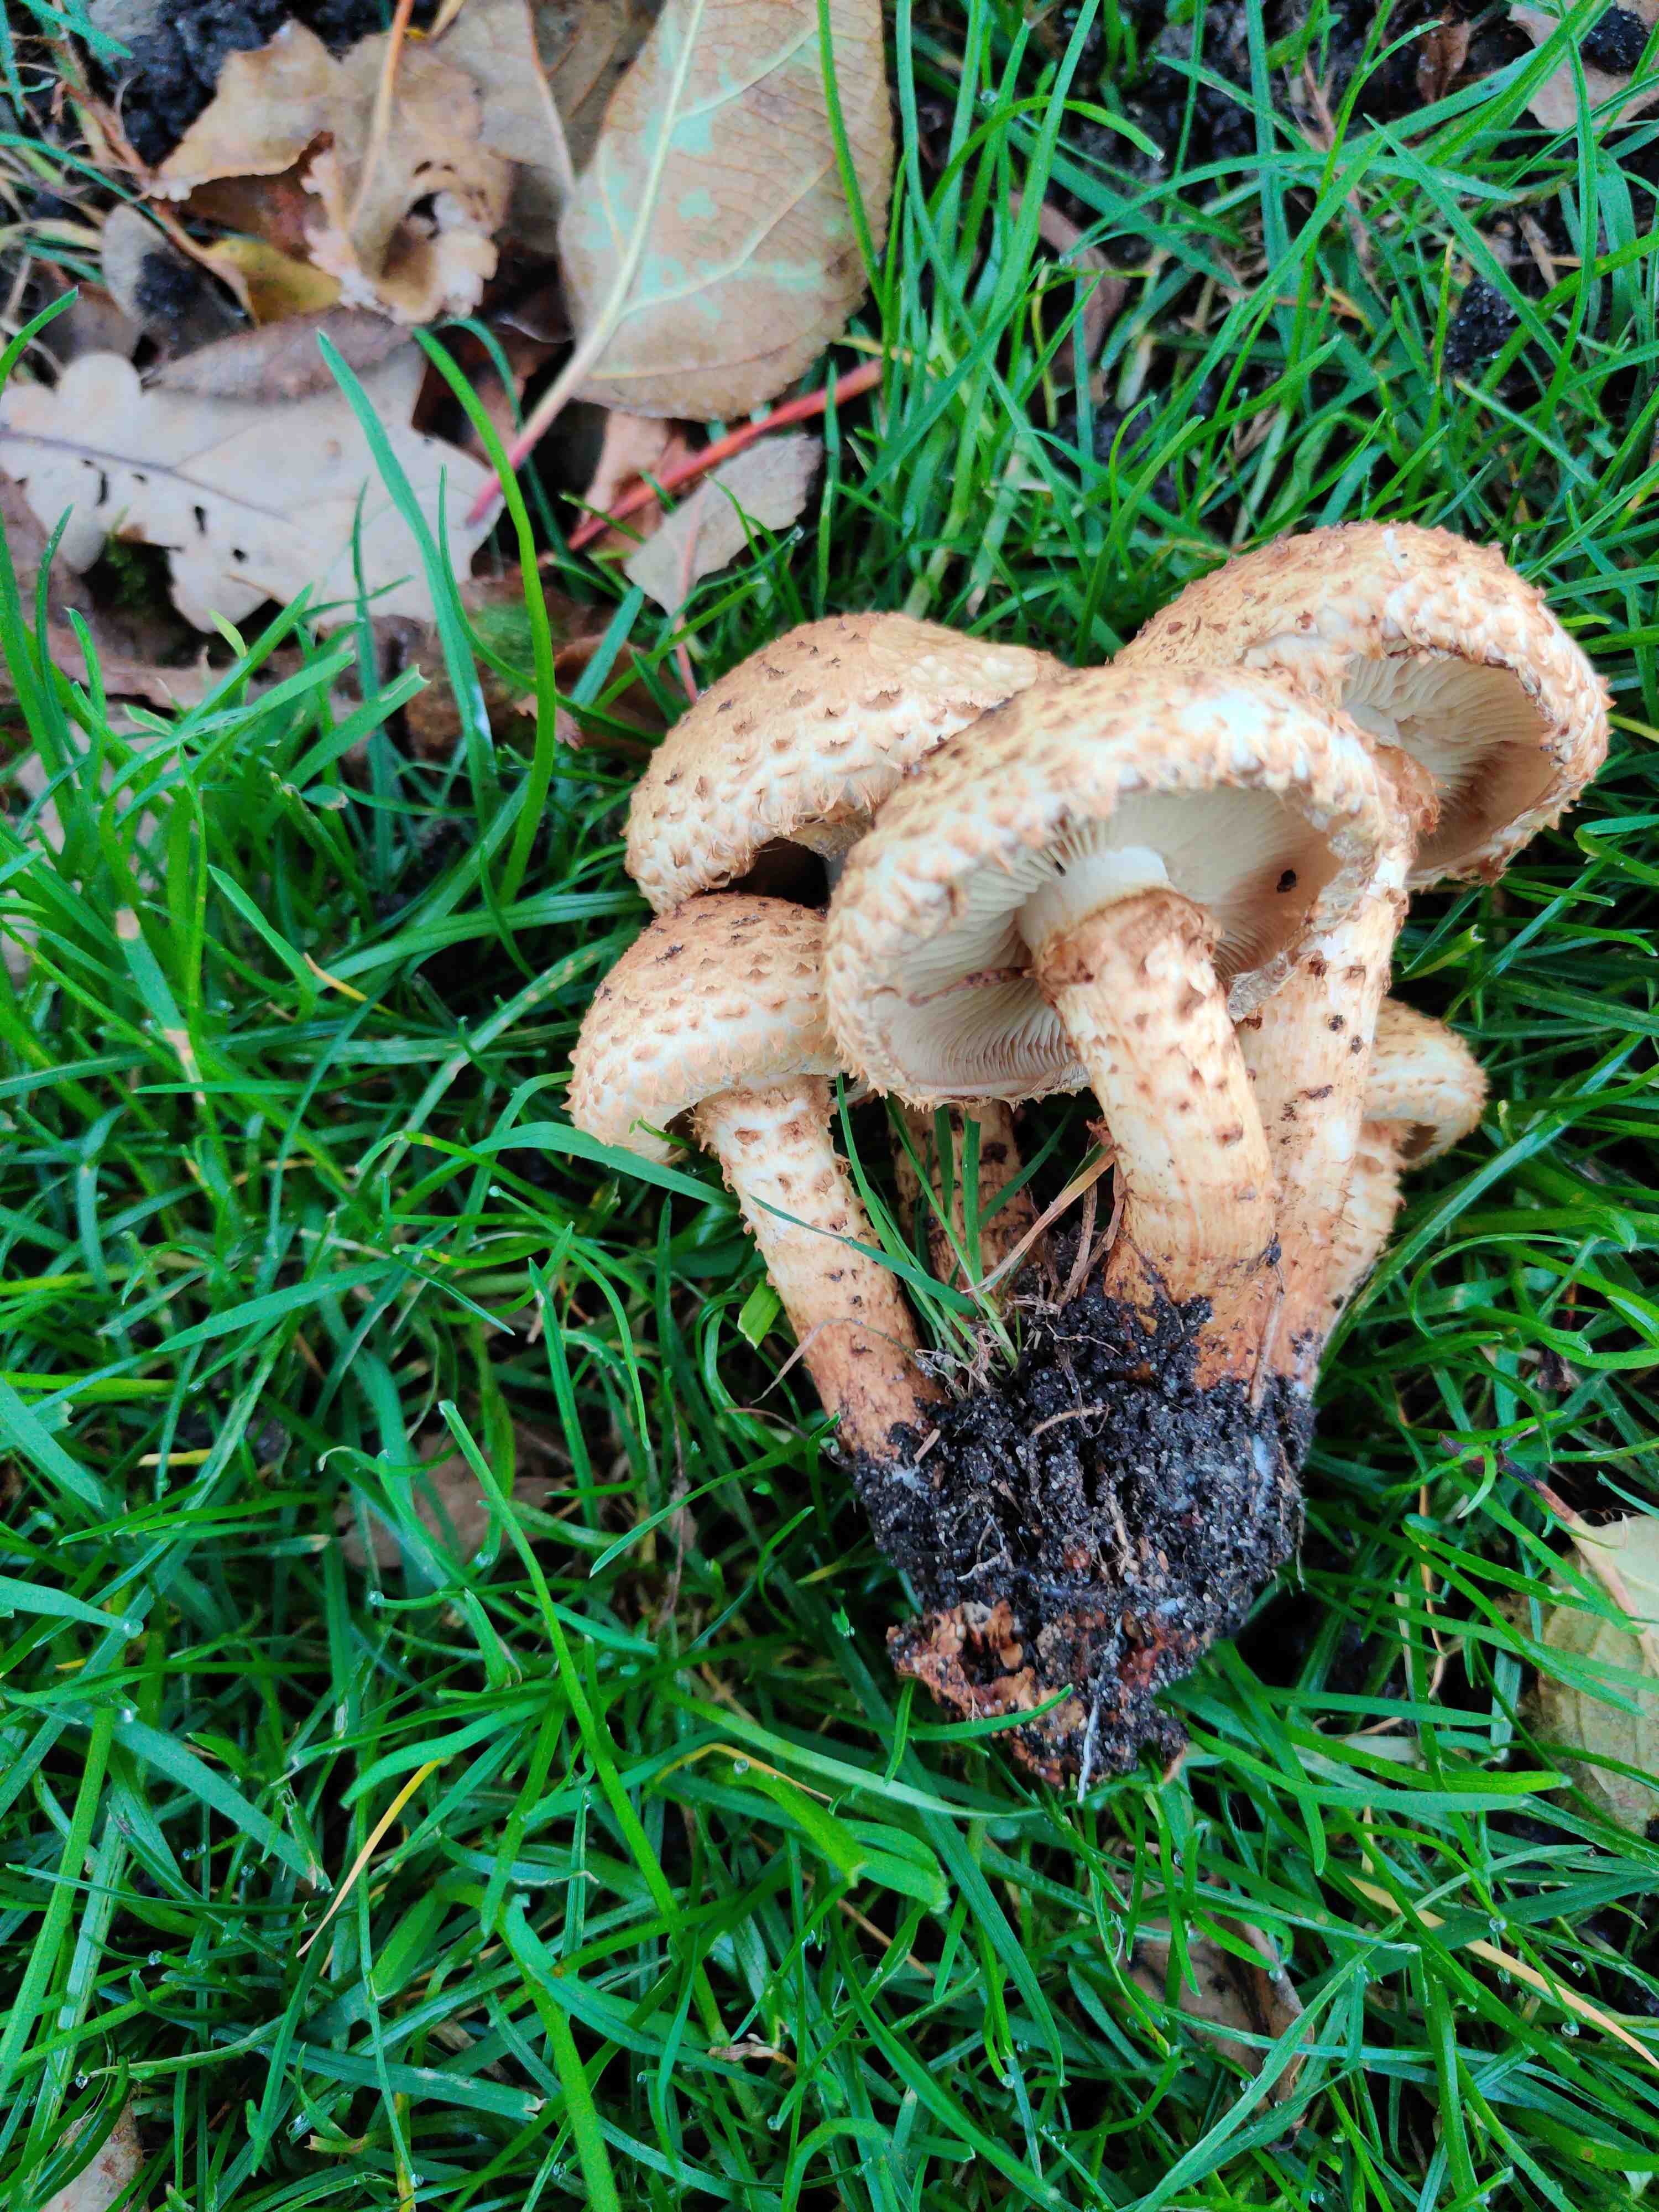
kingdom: Fungi
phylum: Basidiomycota
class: Agaricomycetes
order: Agaricales
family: Strophariaceae
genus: Pholiota
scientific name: Pholiota squarrosa
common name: krumskællet skælhat
